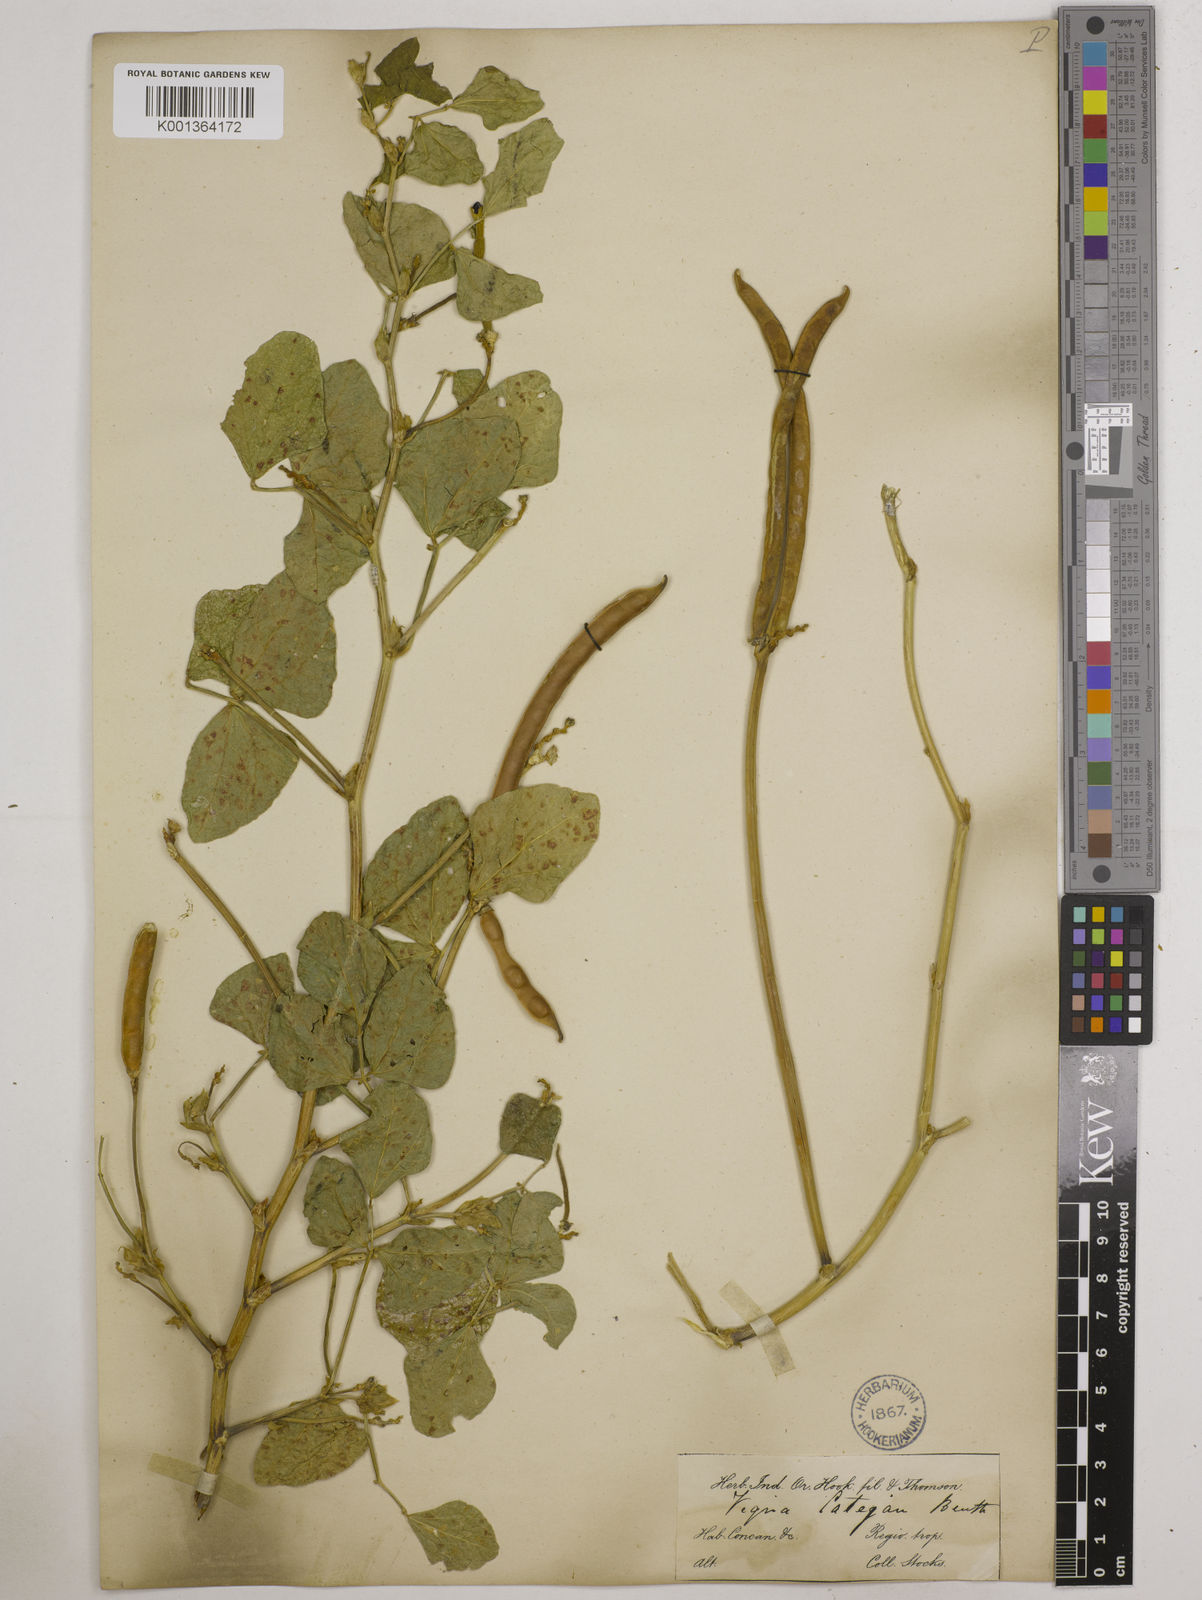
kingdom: Plantae
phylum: Tracheophyta
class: Magnoliopsida
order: Fabales
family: Fabaceae
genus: Vigna
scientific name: Vigna
